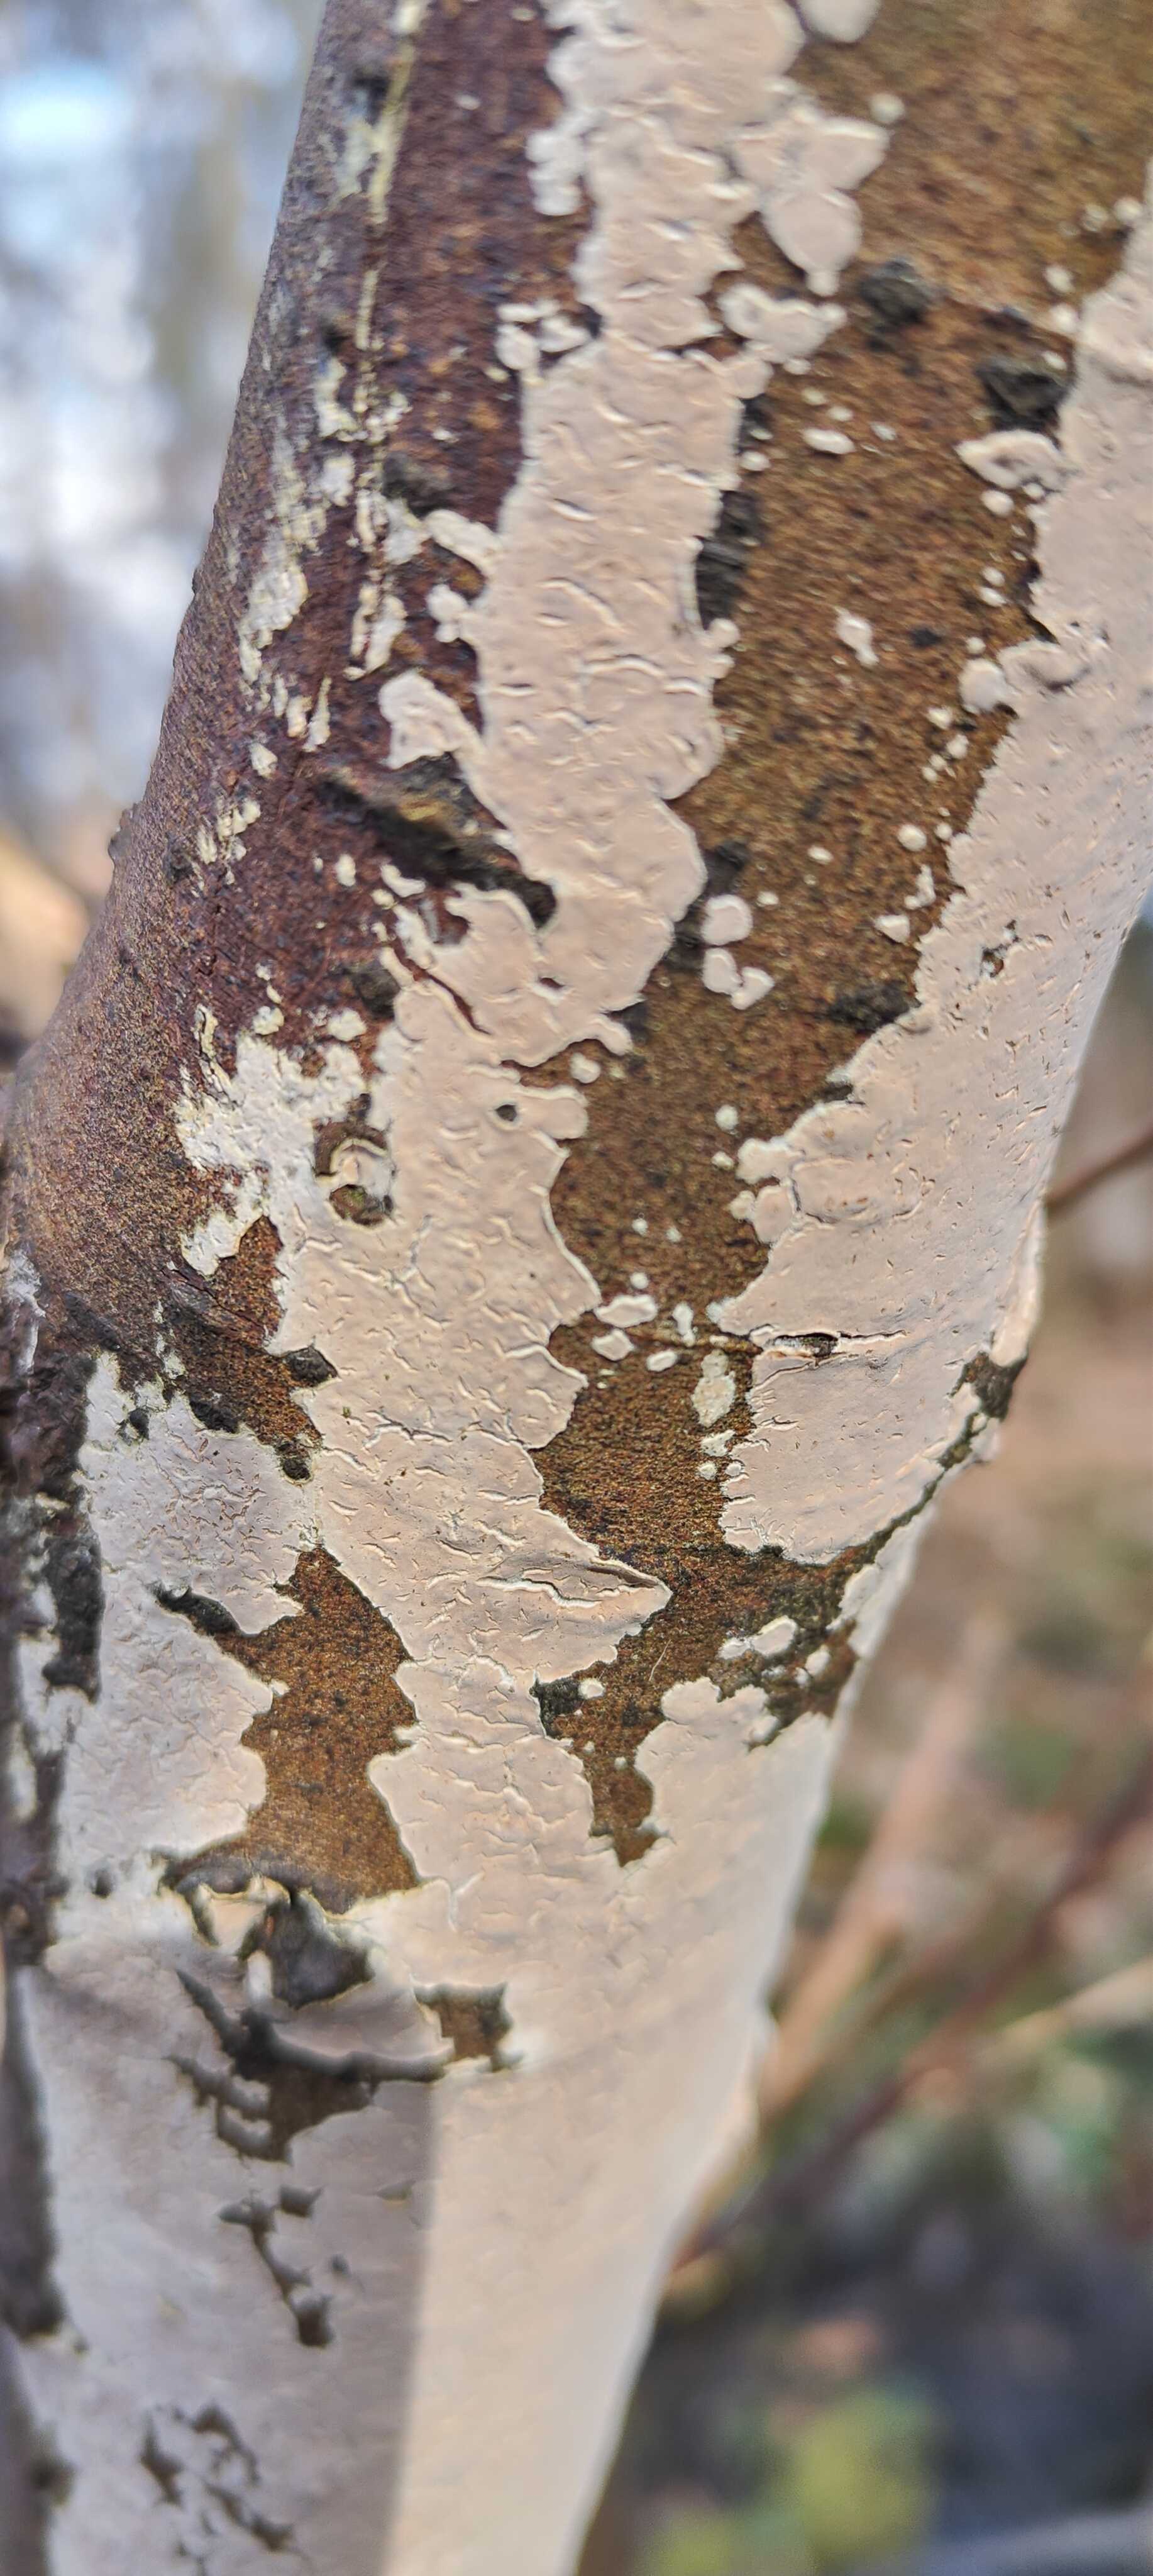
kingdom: Fungi
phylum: Basidiomycota
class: Agaricomycetes
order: Agaricales
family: Physalacriaceae
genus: Cylindrobasidium
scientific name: Cylindrobasidium evolvens
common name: sprækkehinde
